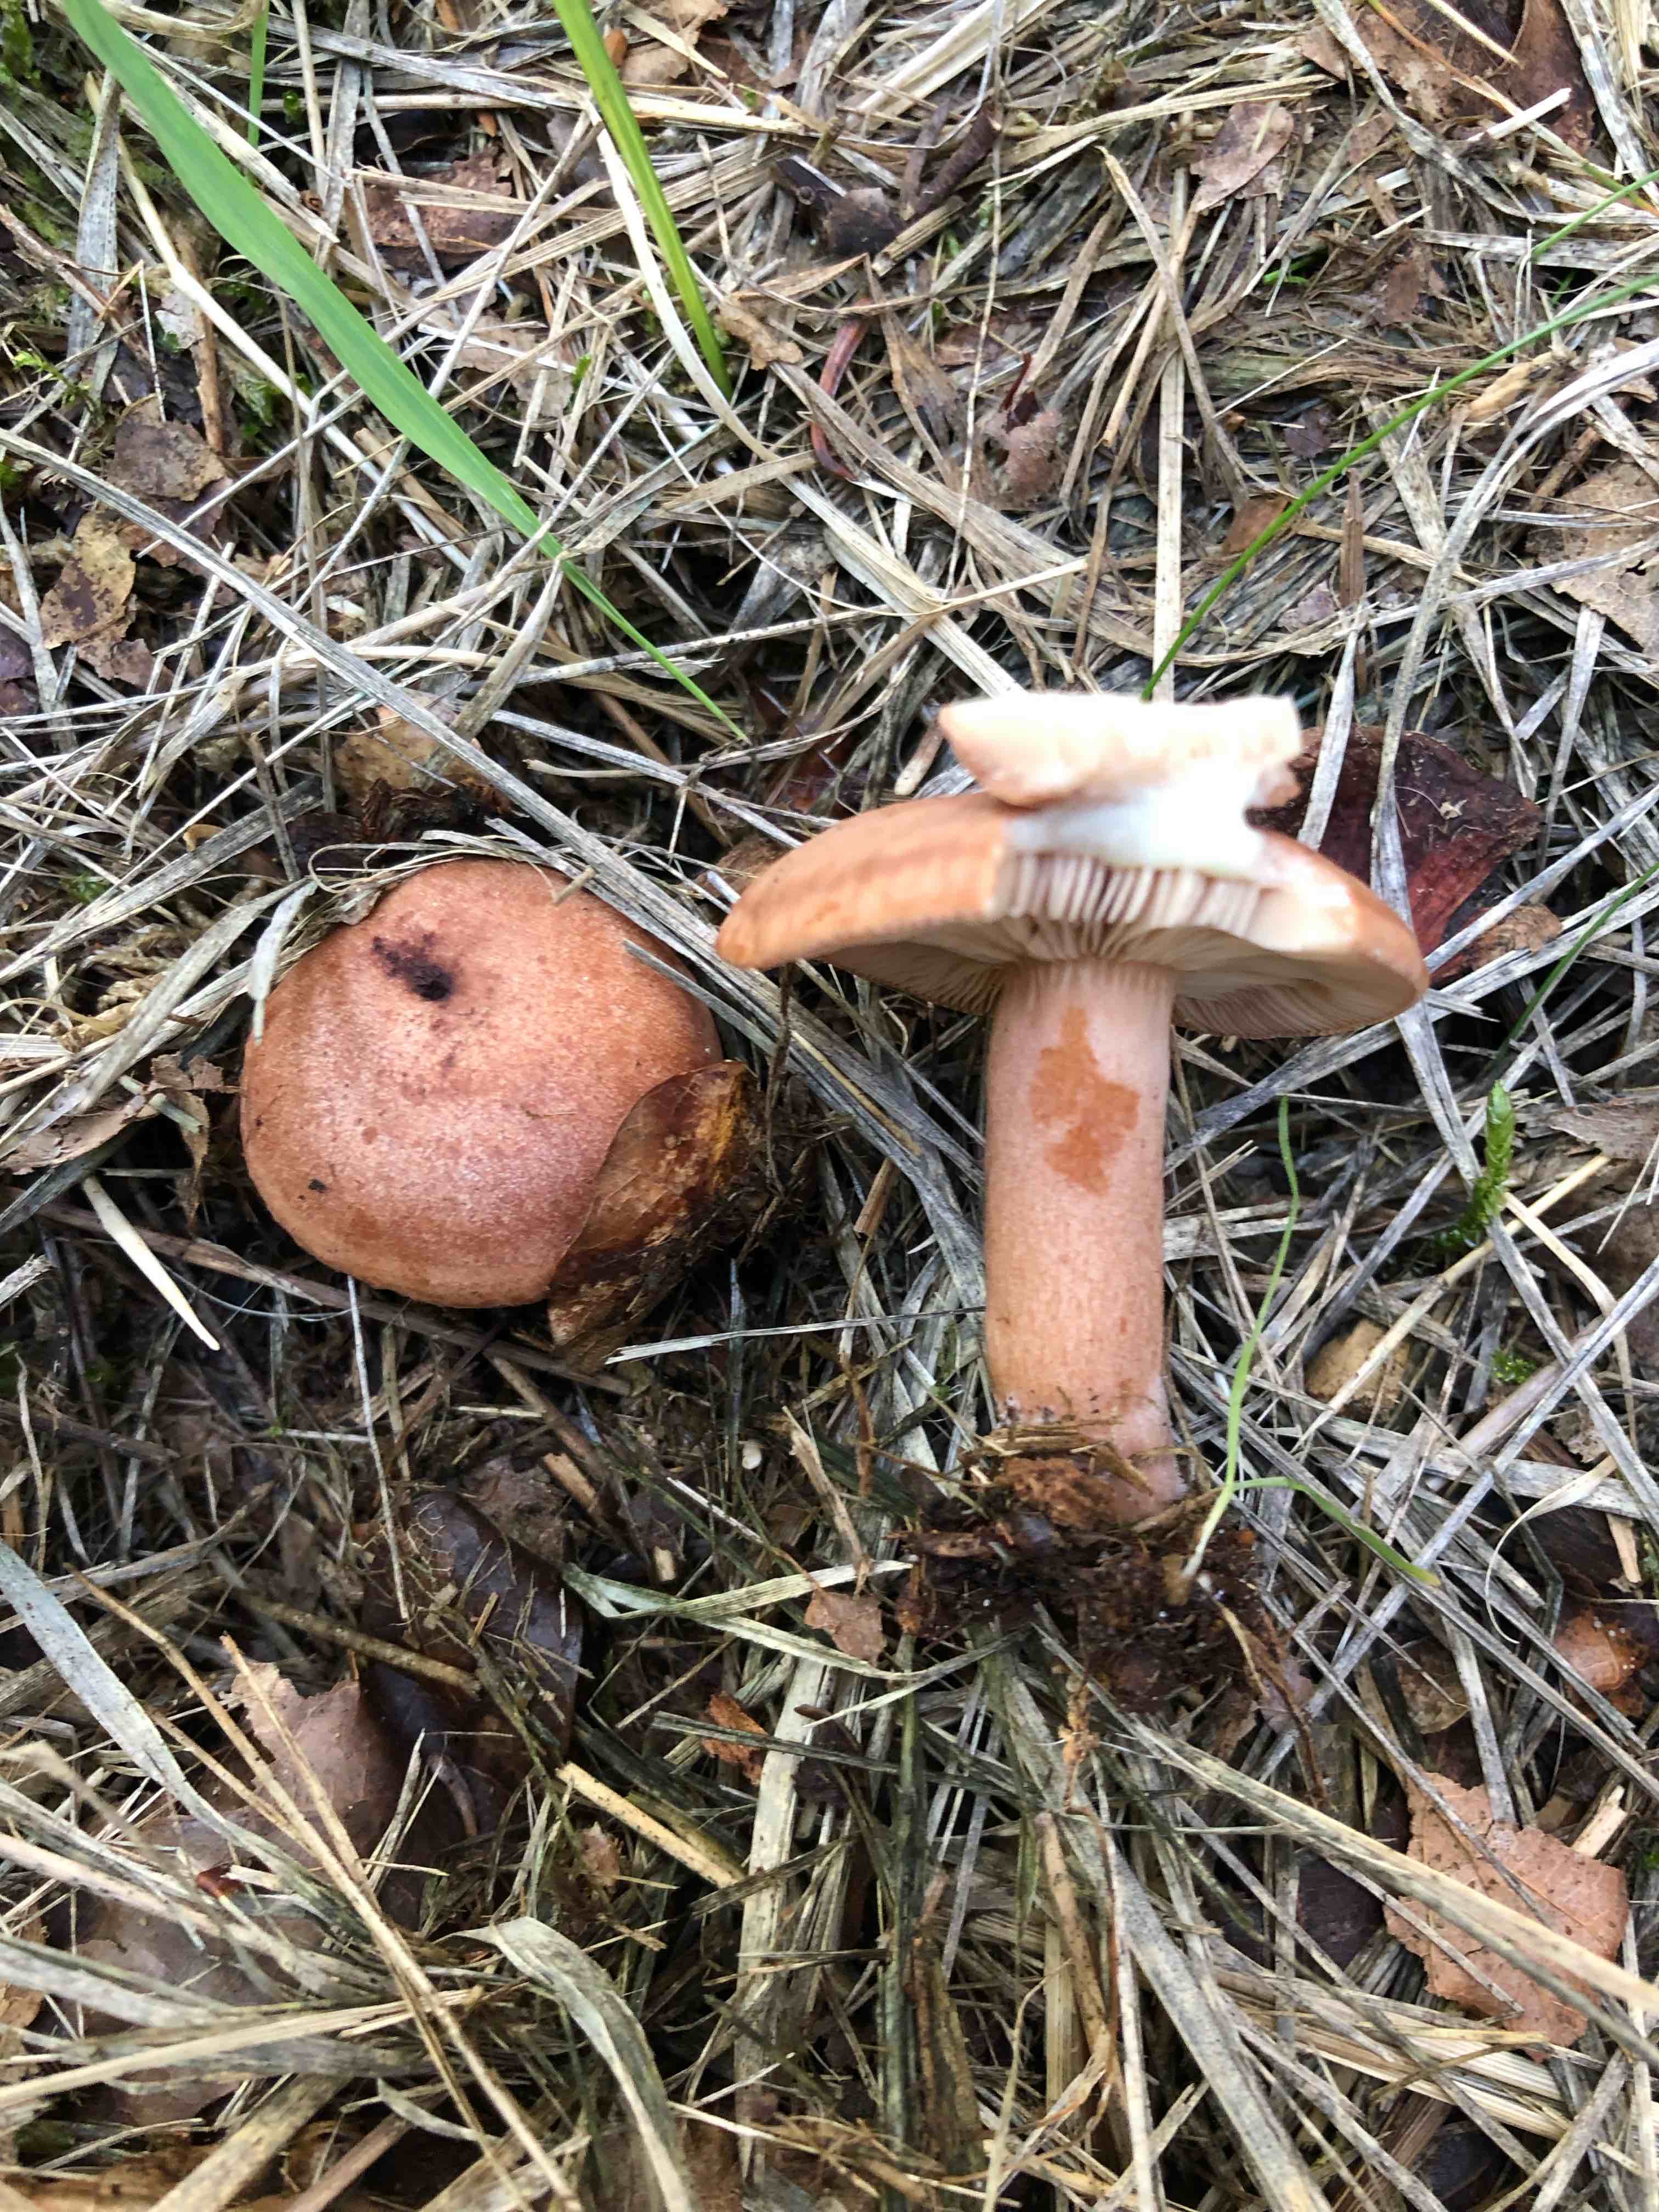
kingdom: Fungi
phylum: Basidiomycota
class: Agaricomycetes
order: Russulales
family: Russulaceae
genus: Lactarius
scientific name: Lactarius quietus
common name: ege-mælkehat
